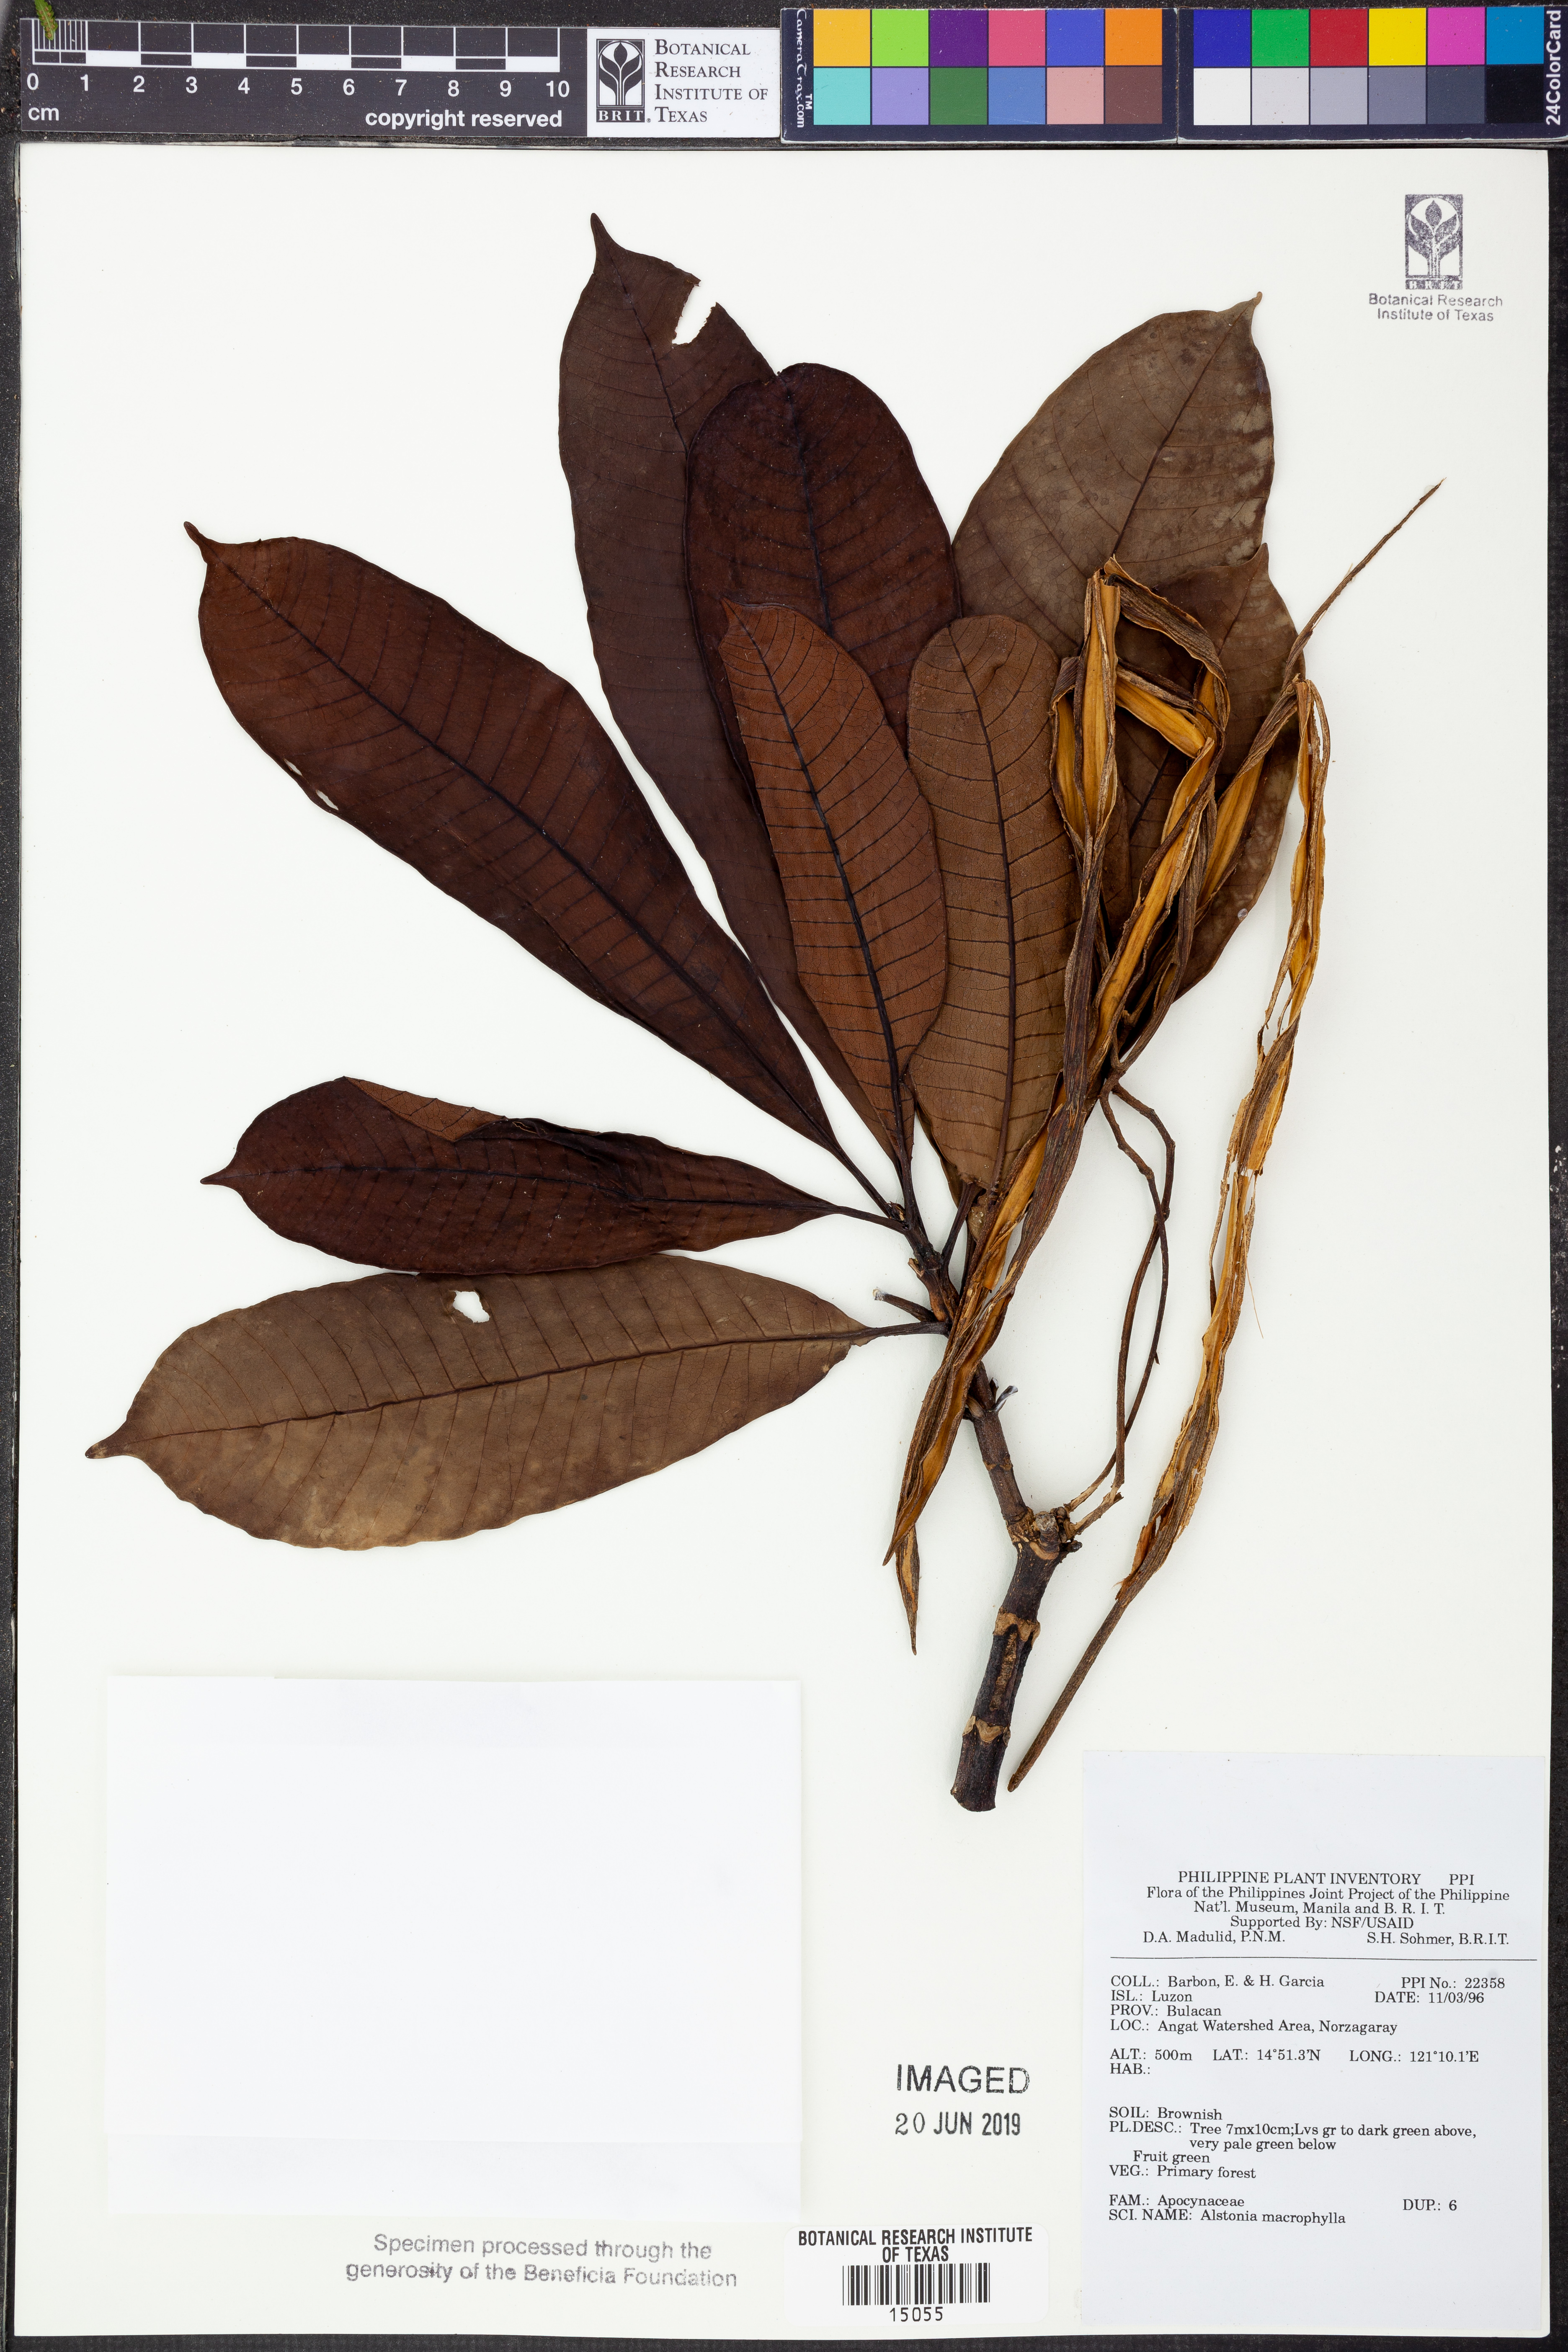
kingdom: Plantae
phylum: Tracheophyta
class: Magnoliopsida
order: Gentianales
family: Apocynaceae
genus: Alstonia
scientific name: Alstonia macrophylla
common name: Deviltree
